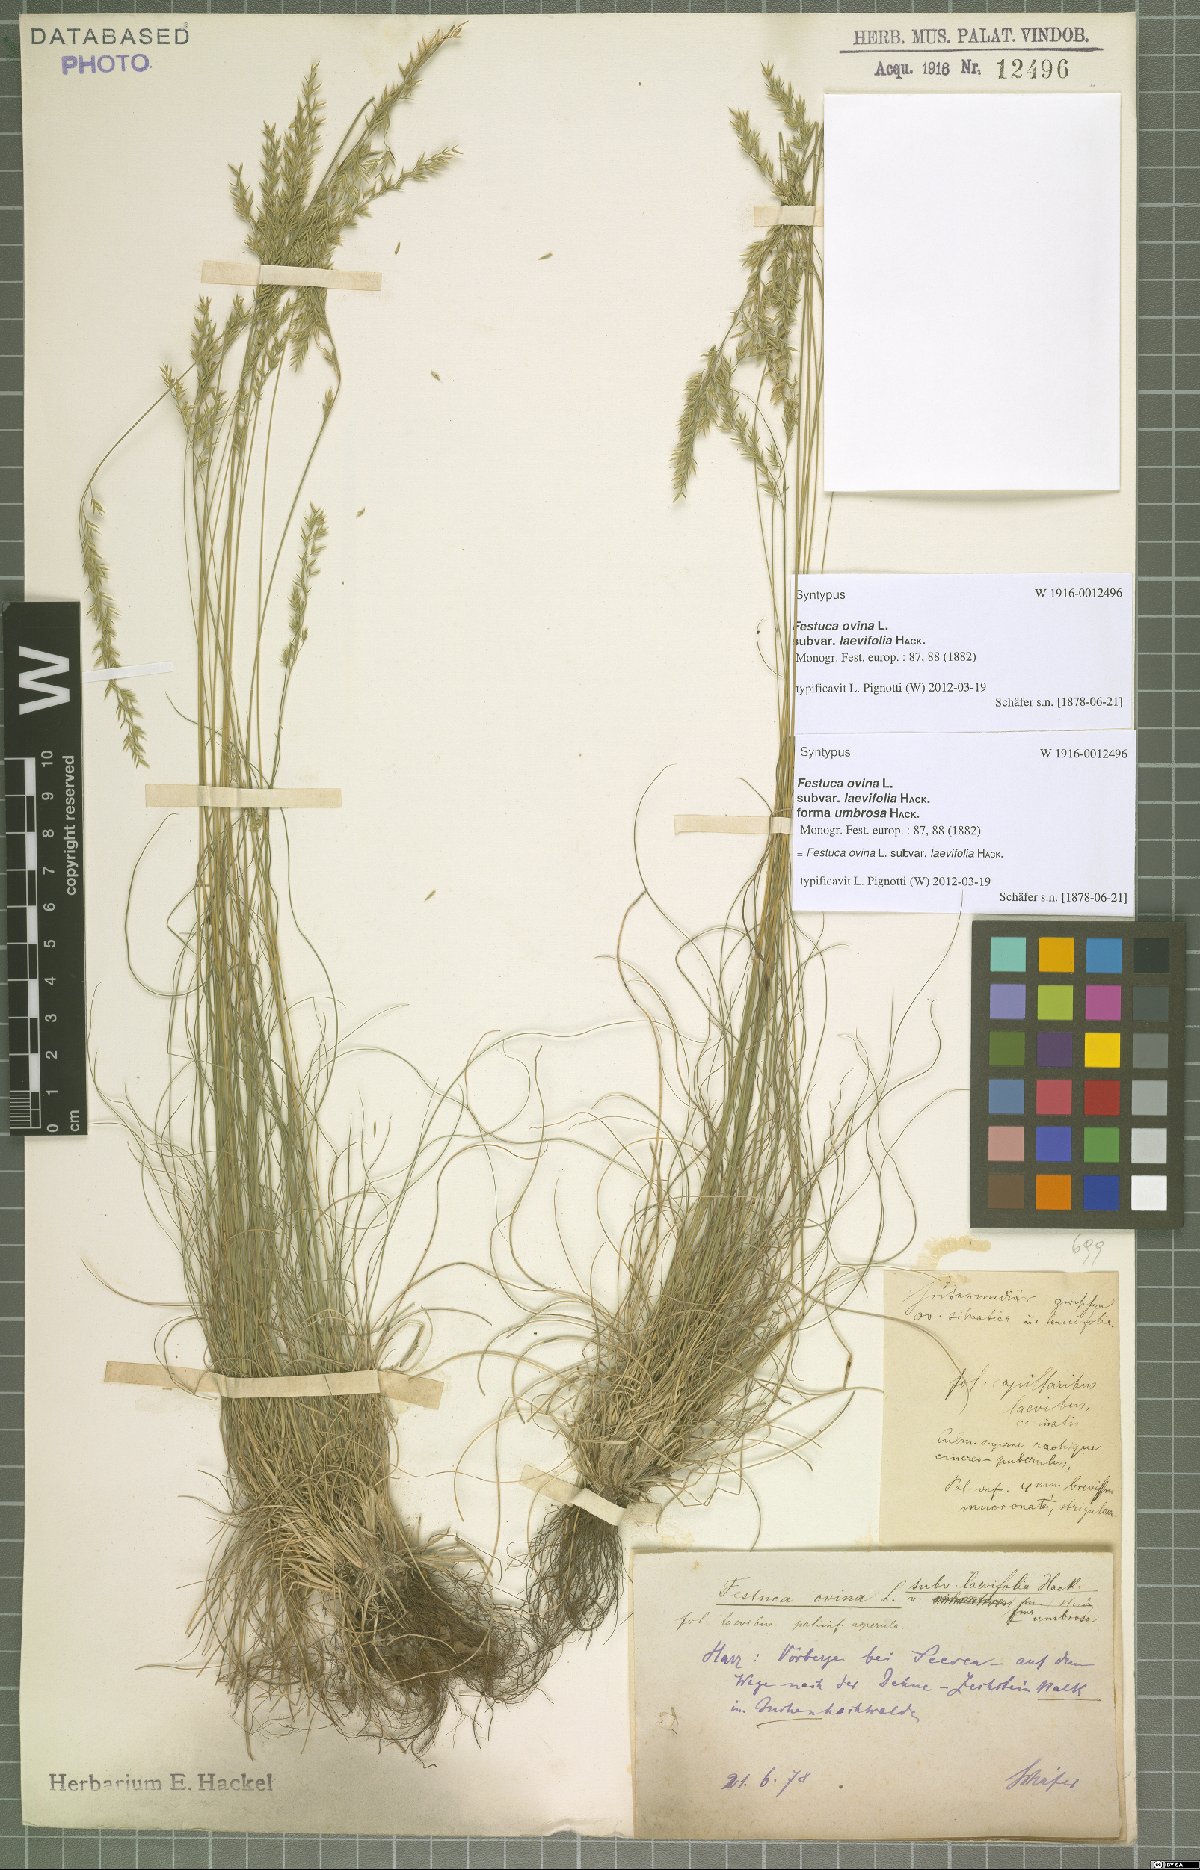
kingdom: Plantae
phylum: Tracheophyta
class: Liliopsida
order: Poales
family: Poaceae
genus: Festuca
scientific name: Festuca ovina
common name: Sheep fescue
